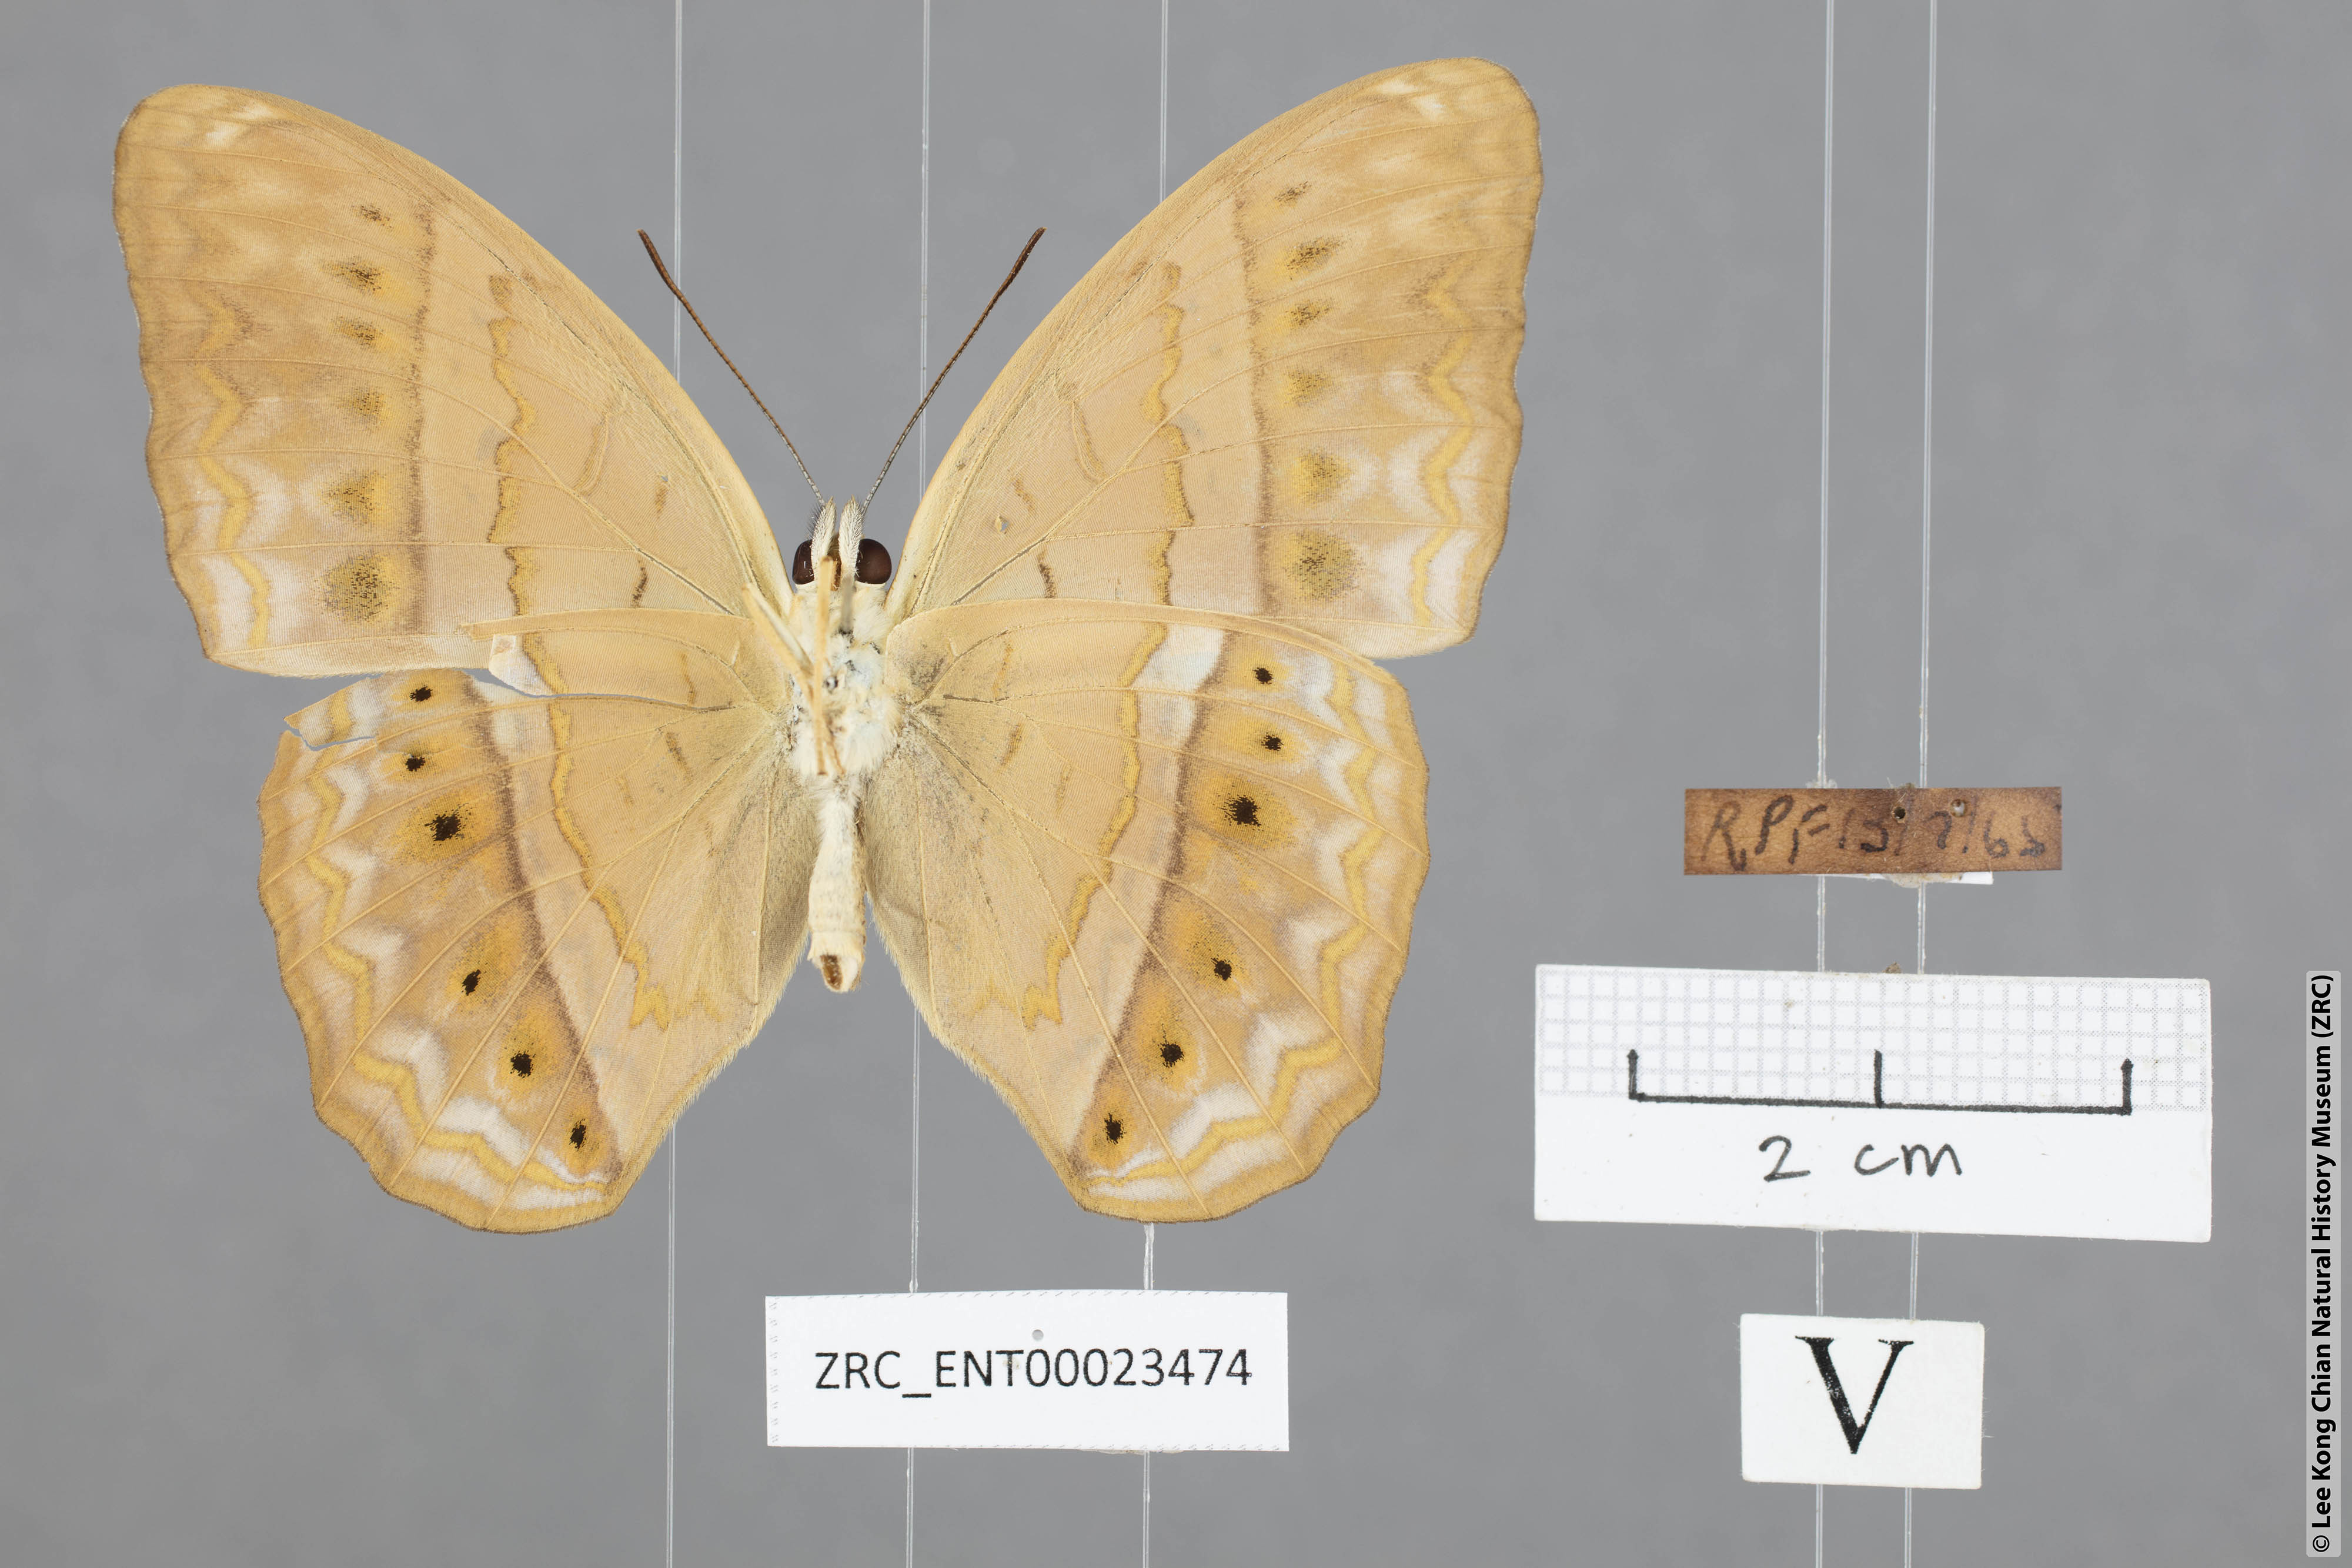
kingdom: Animalia
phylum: Arthropoda
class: Insecta
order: Lepidoptera
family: Nymphalidae
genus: Cirrochroa
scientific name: Cirrochroa tyche
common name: Common yeoman
